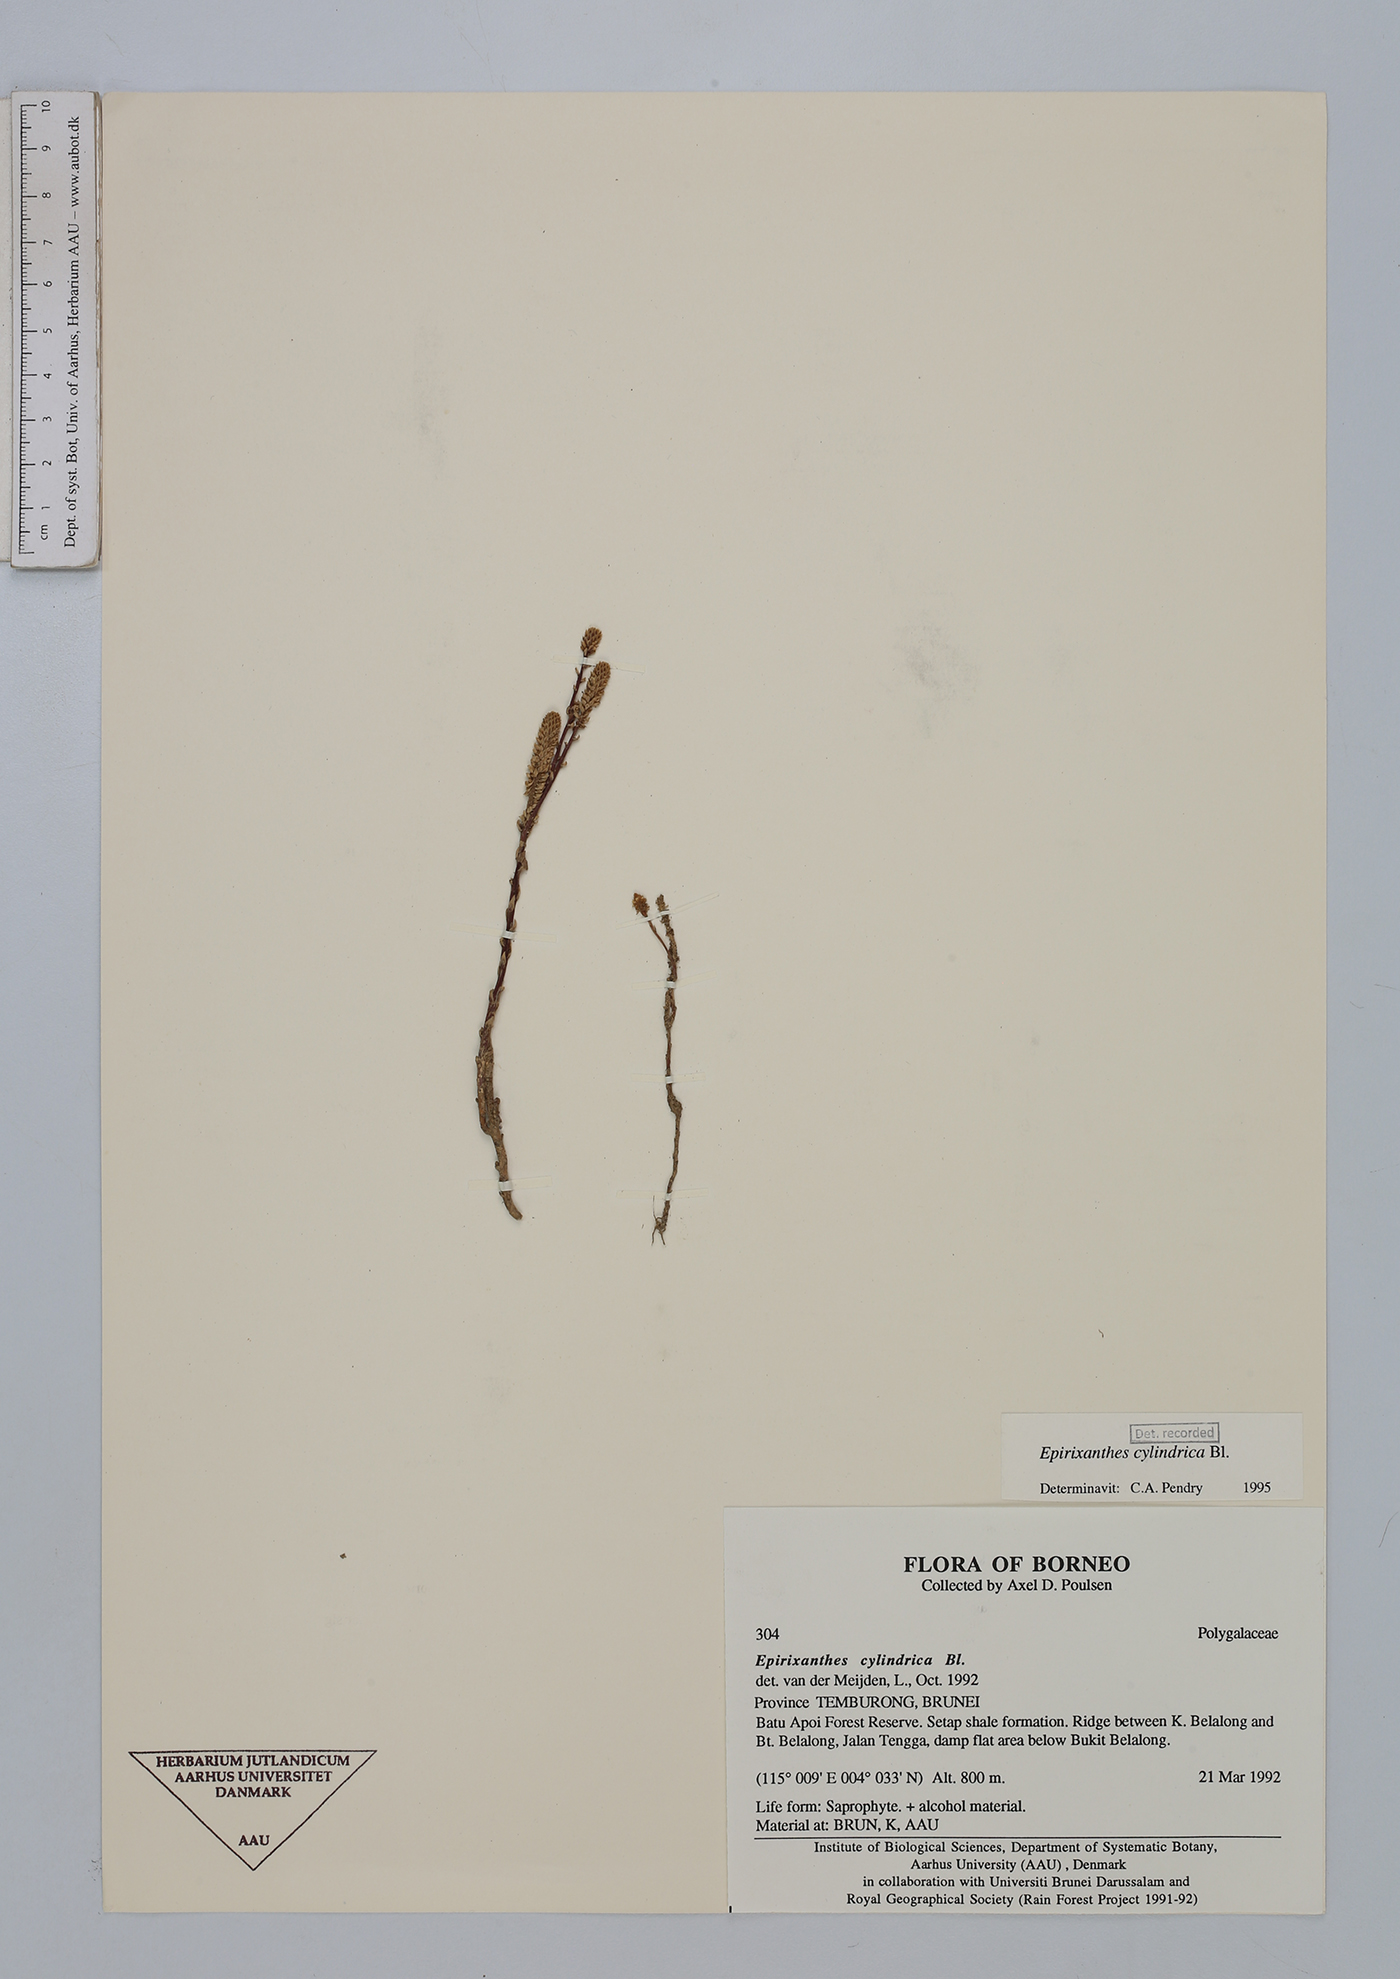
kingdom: Plantae
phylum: Tracheophyta
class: Magnoliopsida
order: Fabales
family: Polygalaceae
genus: Epirixanthes
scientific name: Epirixanthes cylindrica
